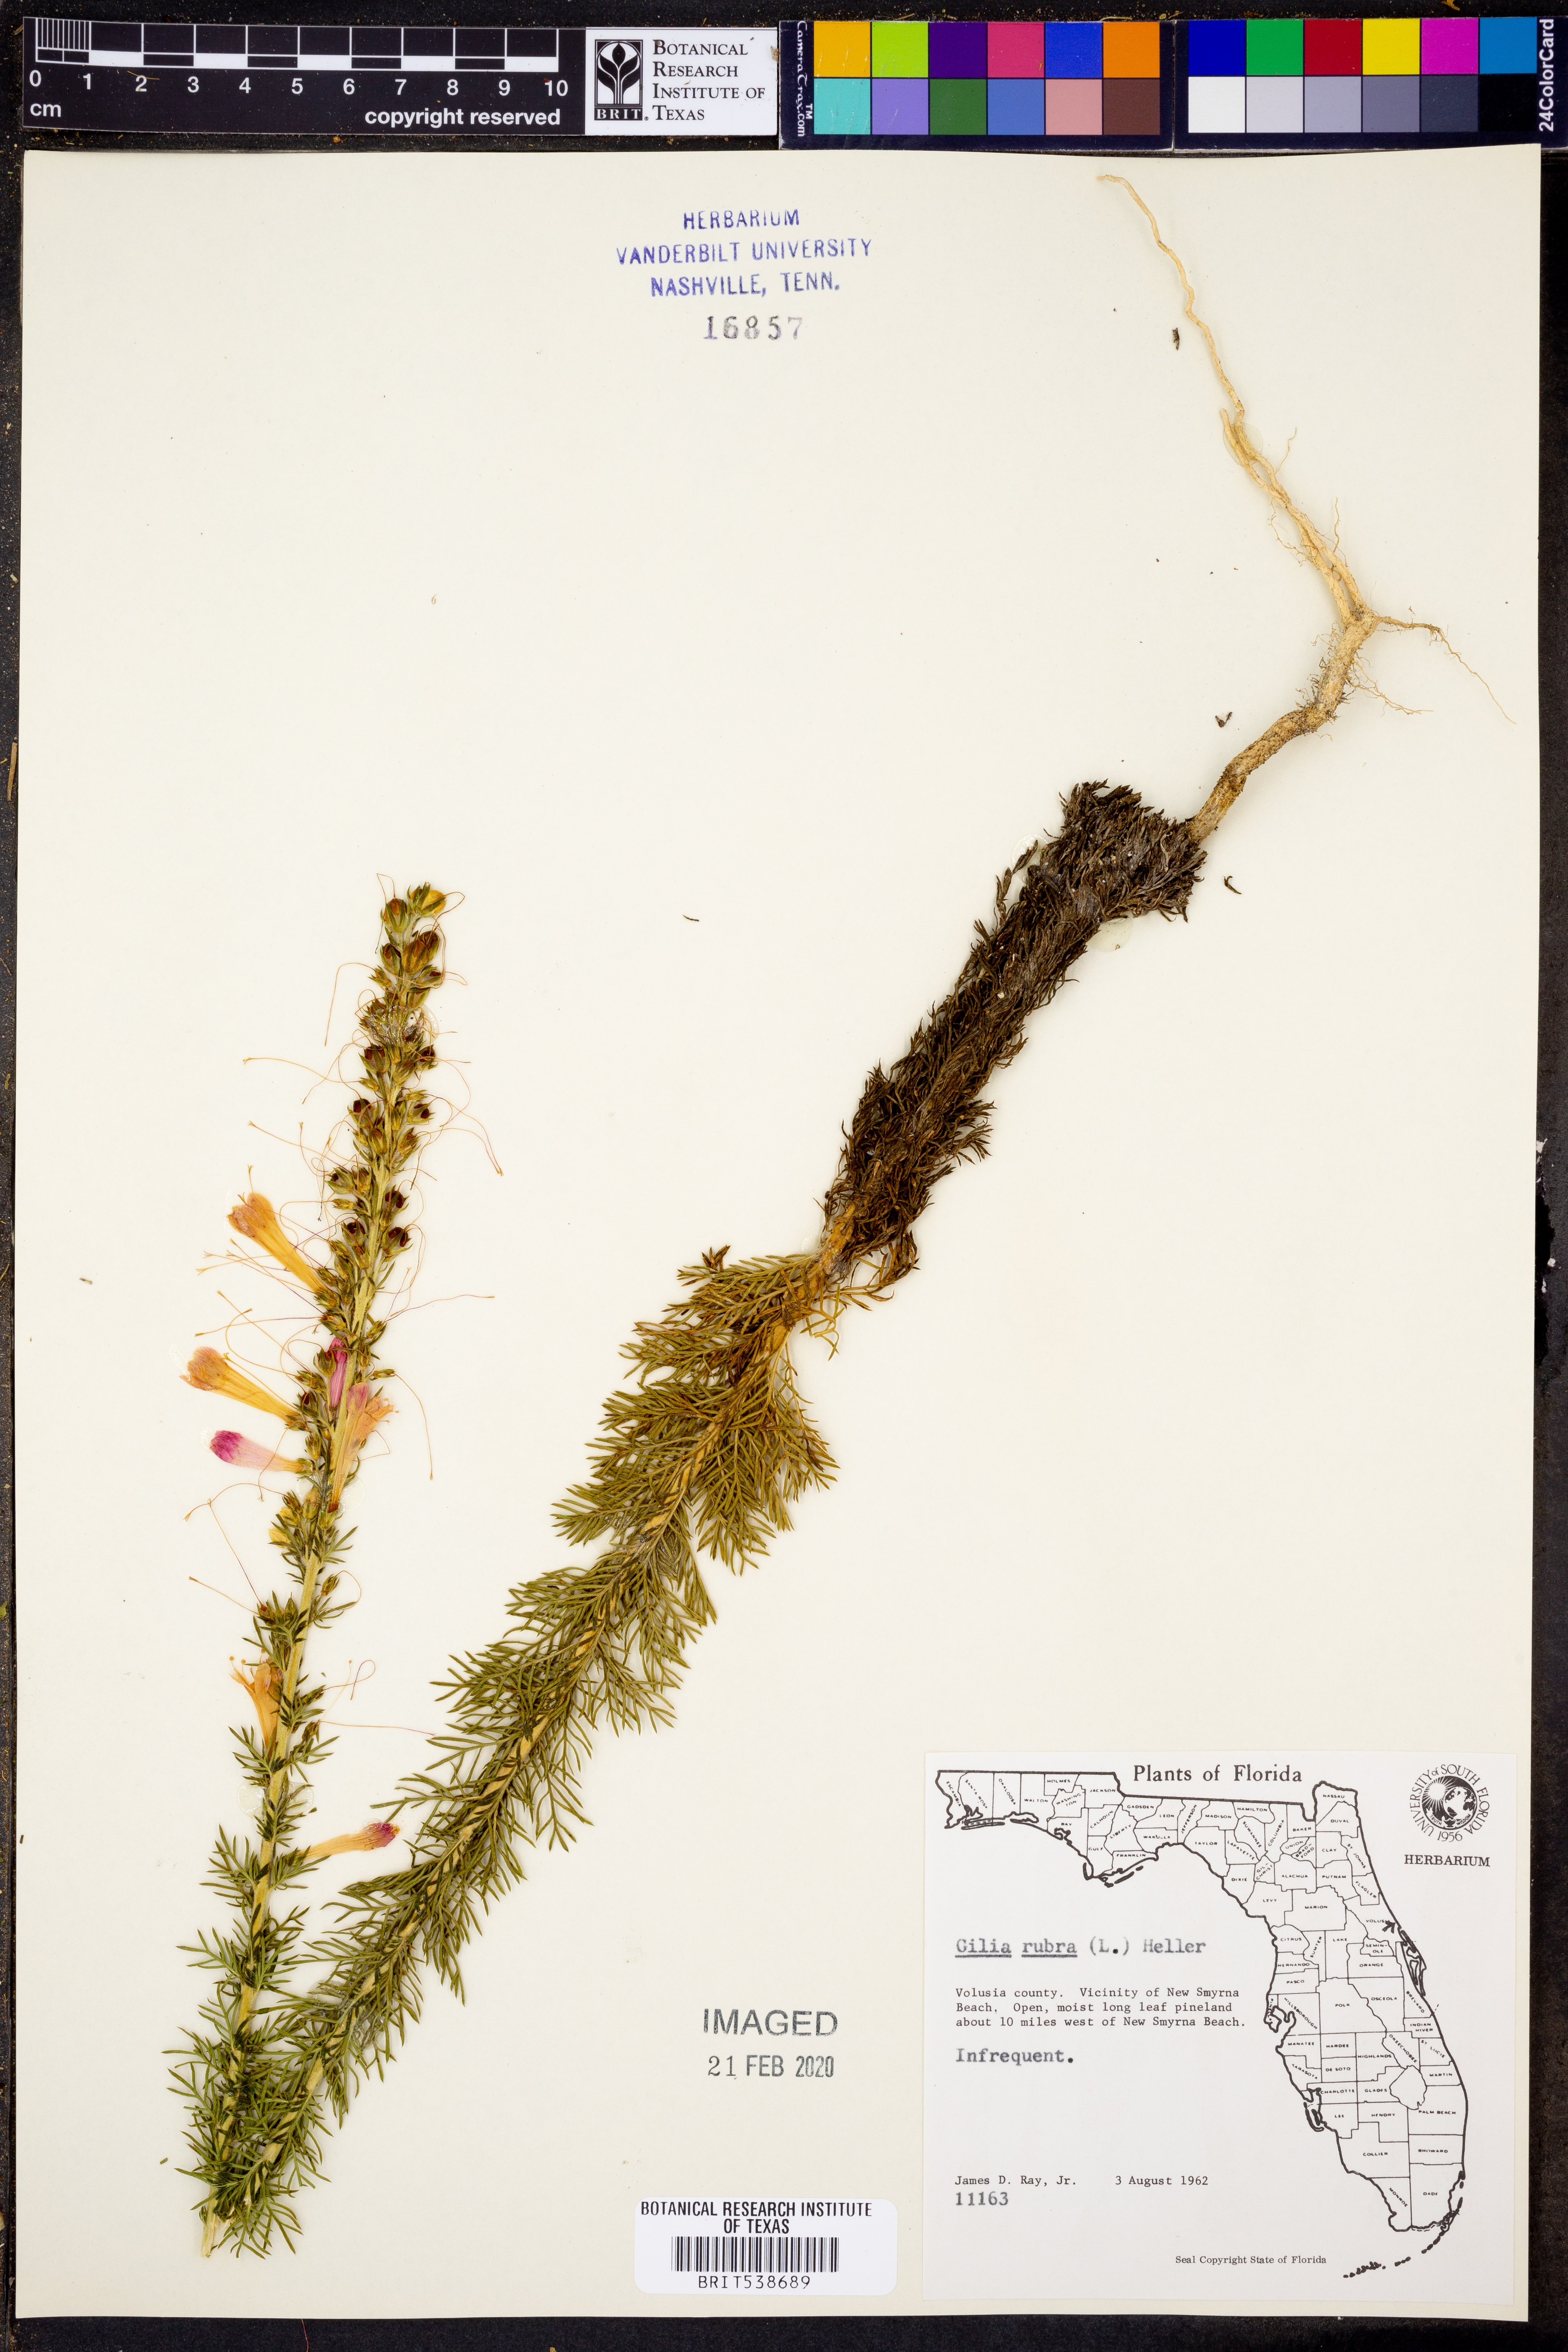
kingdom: Plantae
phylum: Tracheophyta
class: Magnoliopsida
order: Ericales
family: Polemoniaceae
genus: Ipomopsis
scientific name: Ipomopsis rubra
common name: Skyrocket
